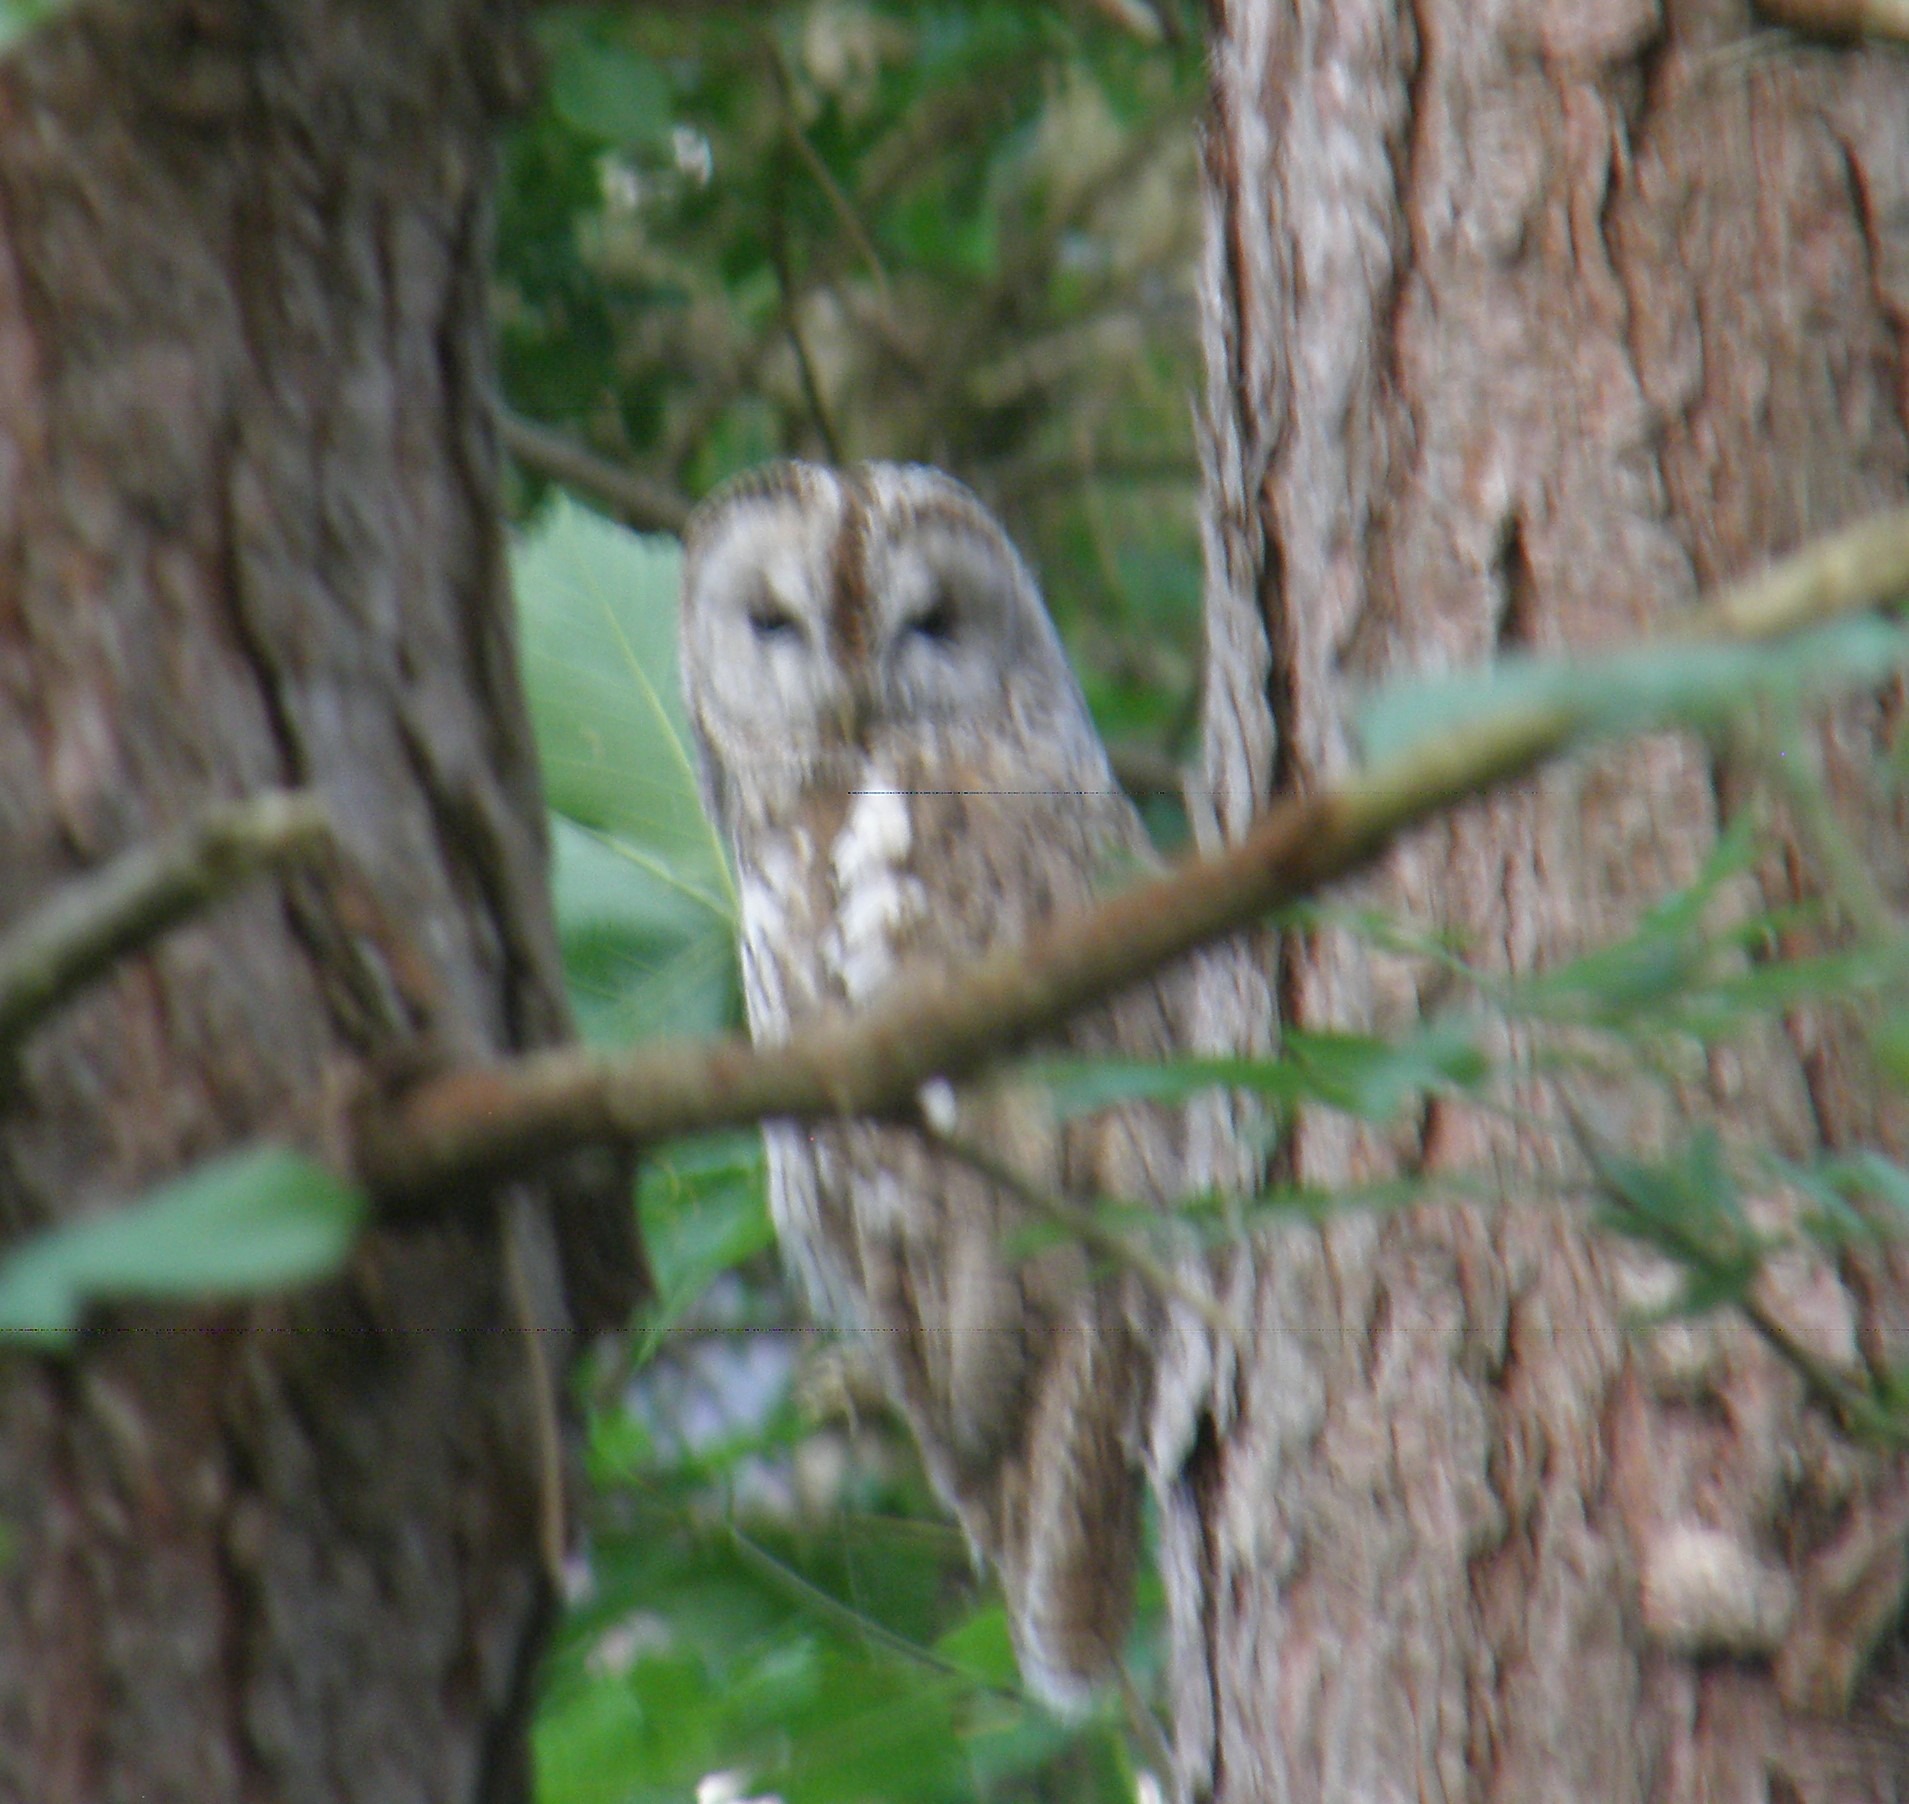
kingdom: Animalia
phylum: Chordata
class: Aves
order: Strigiformes
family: Strigidae
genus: Strix
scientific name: Strix aluco
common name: Natugle
